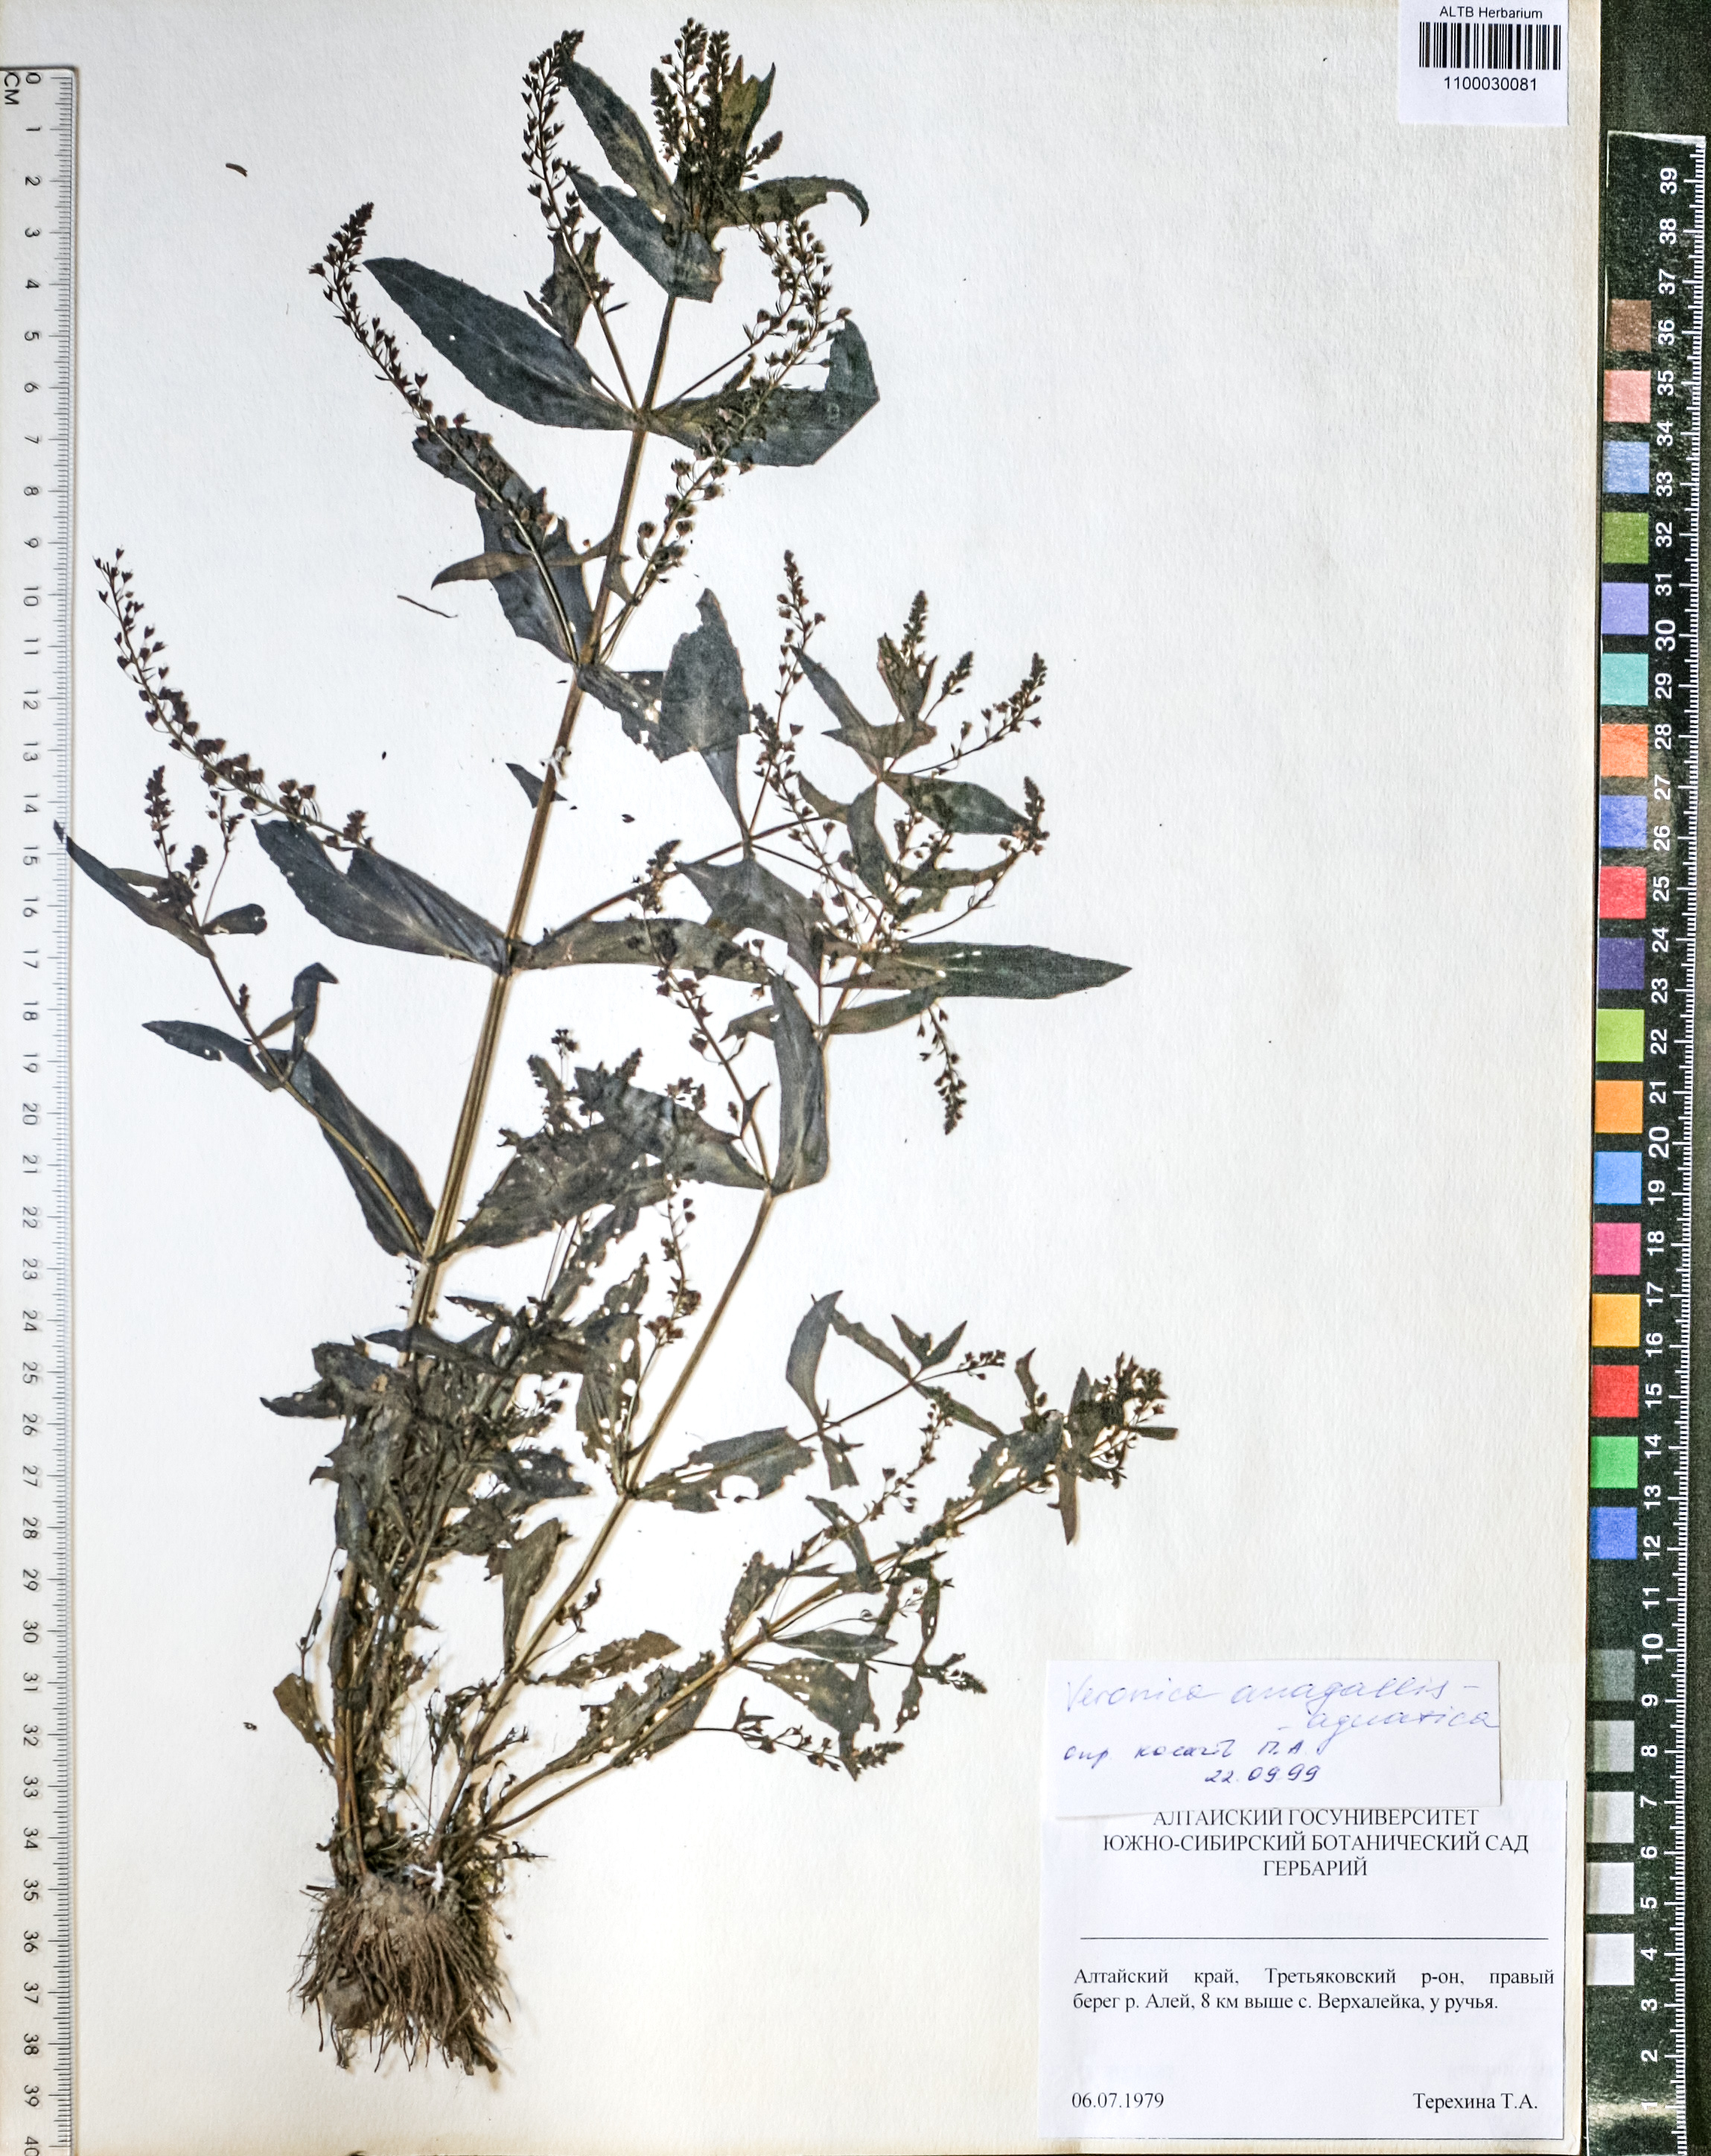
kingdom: Plantae
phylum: Tracheophyta
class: Magnoliopsida
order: Lamiales
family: Plantaginaceae
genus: Veronica
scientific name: Veronica anagallis-aquatica
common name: Water speedwell
